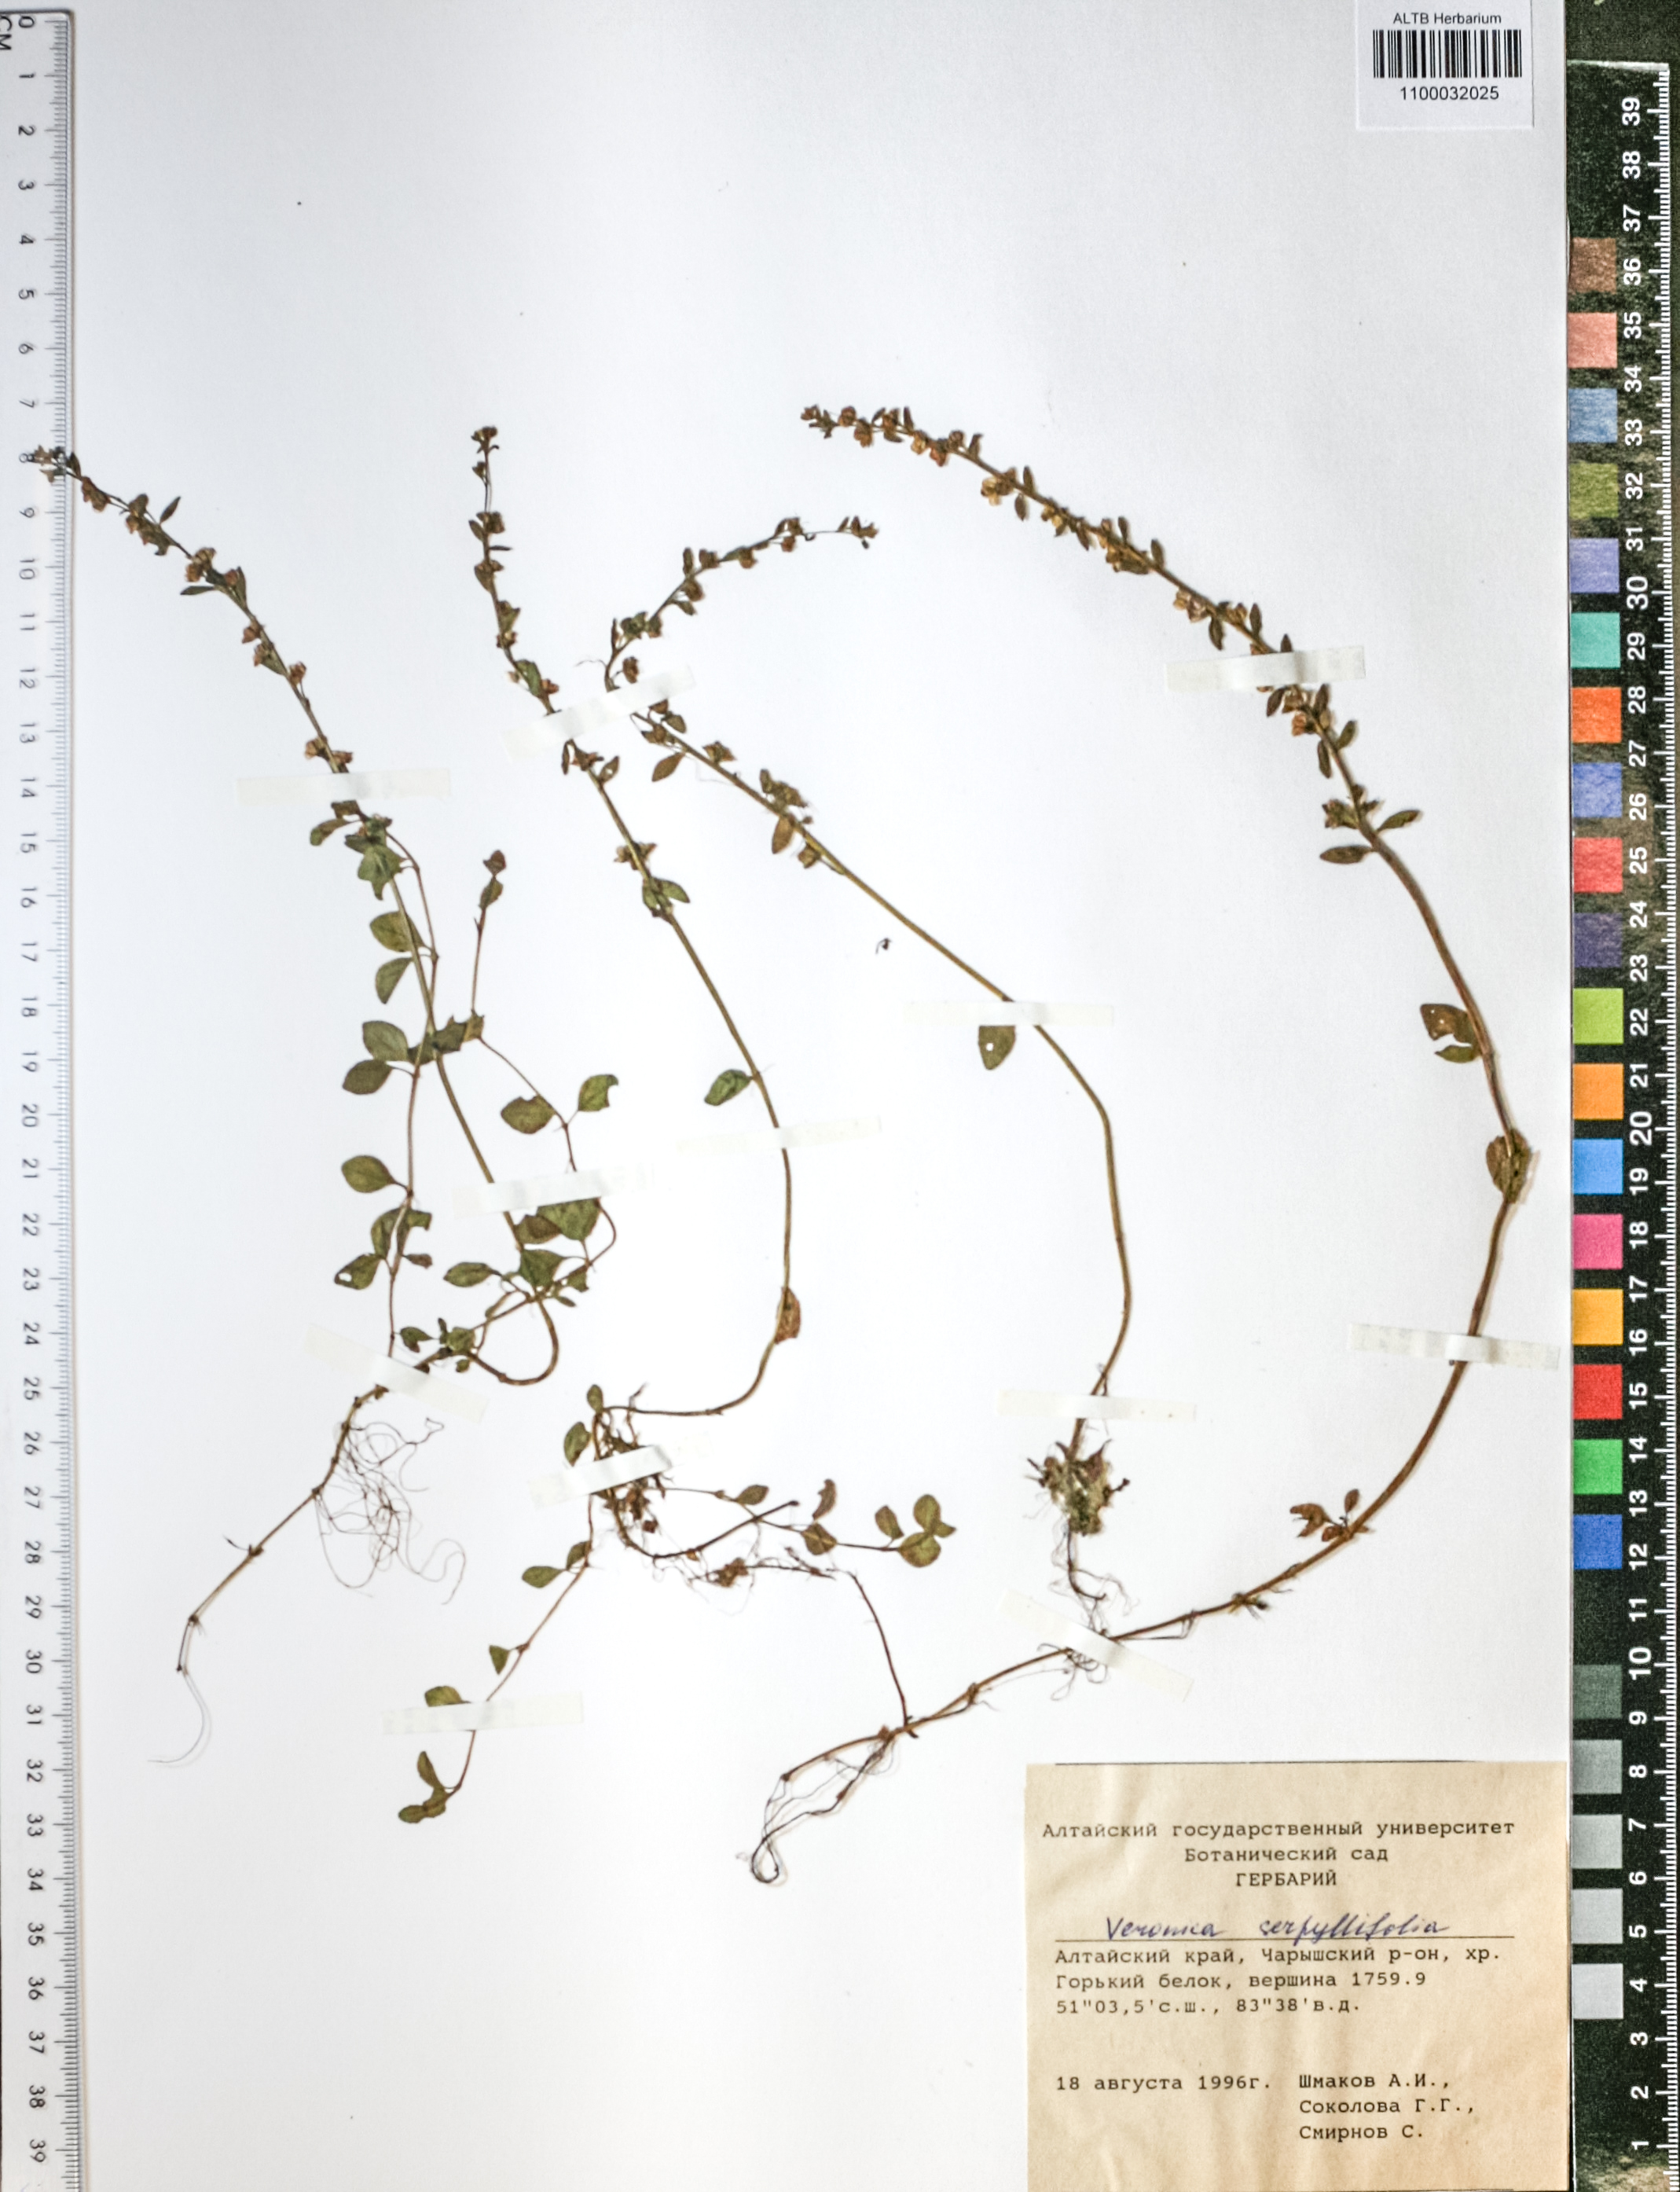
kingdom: Plantae
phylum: Tracheophyta
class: Magnoliopsida
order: Lamiales
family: Plantaginaceae
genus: Veronica
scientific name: Veronica serpyllifolia
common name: Thyme-leaved speedwell
